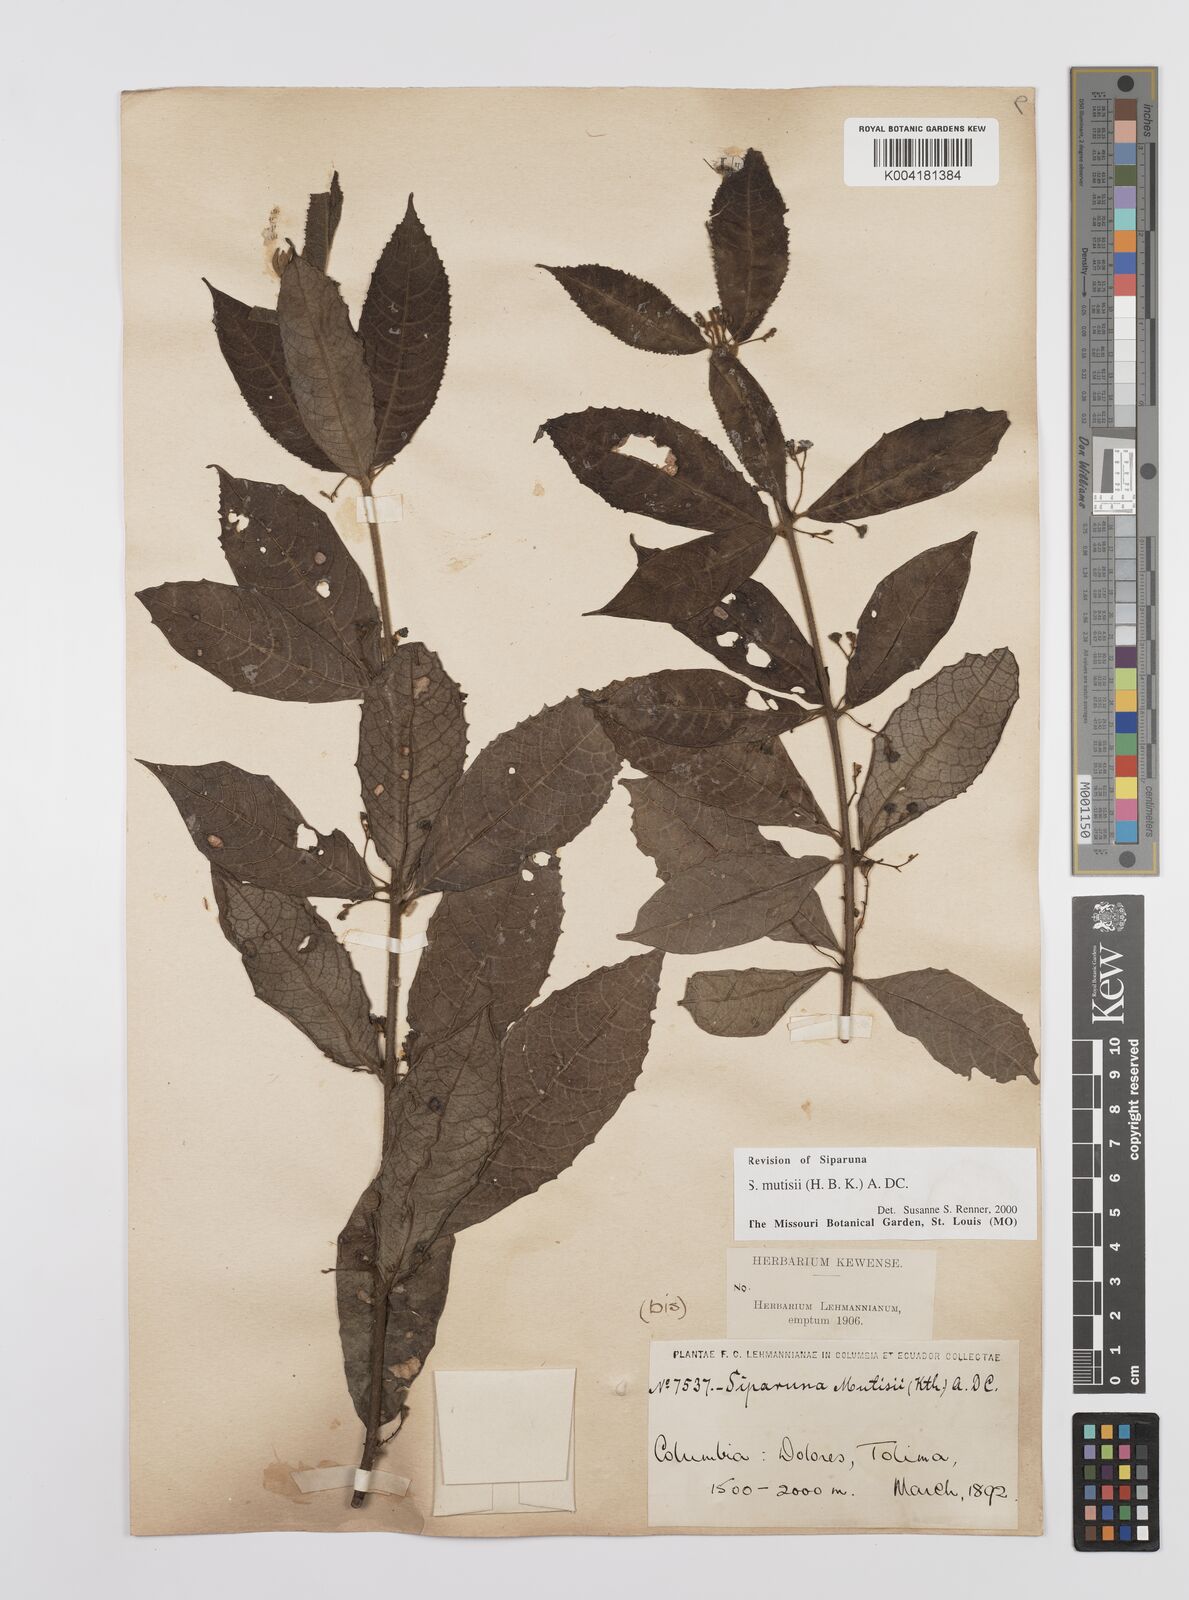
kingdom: Plantae
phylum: Tracheophyta
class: Magnoliopsida
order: Laurales
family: Siparunaceae
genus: Siparuna
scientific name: Siparuna mutisii
